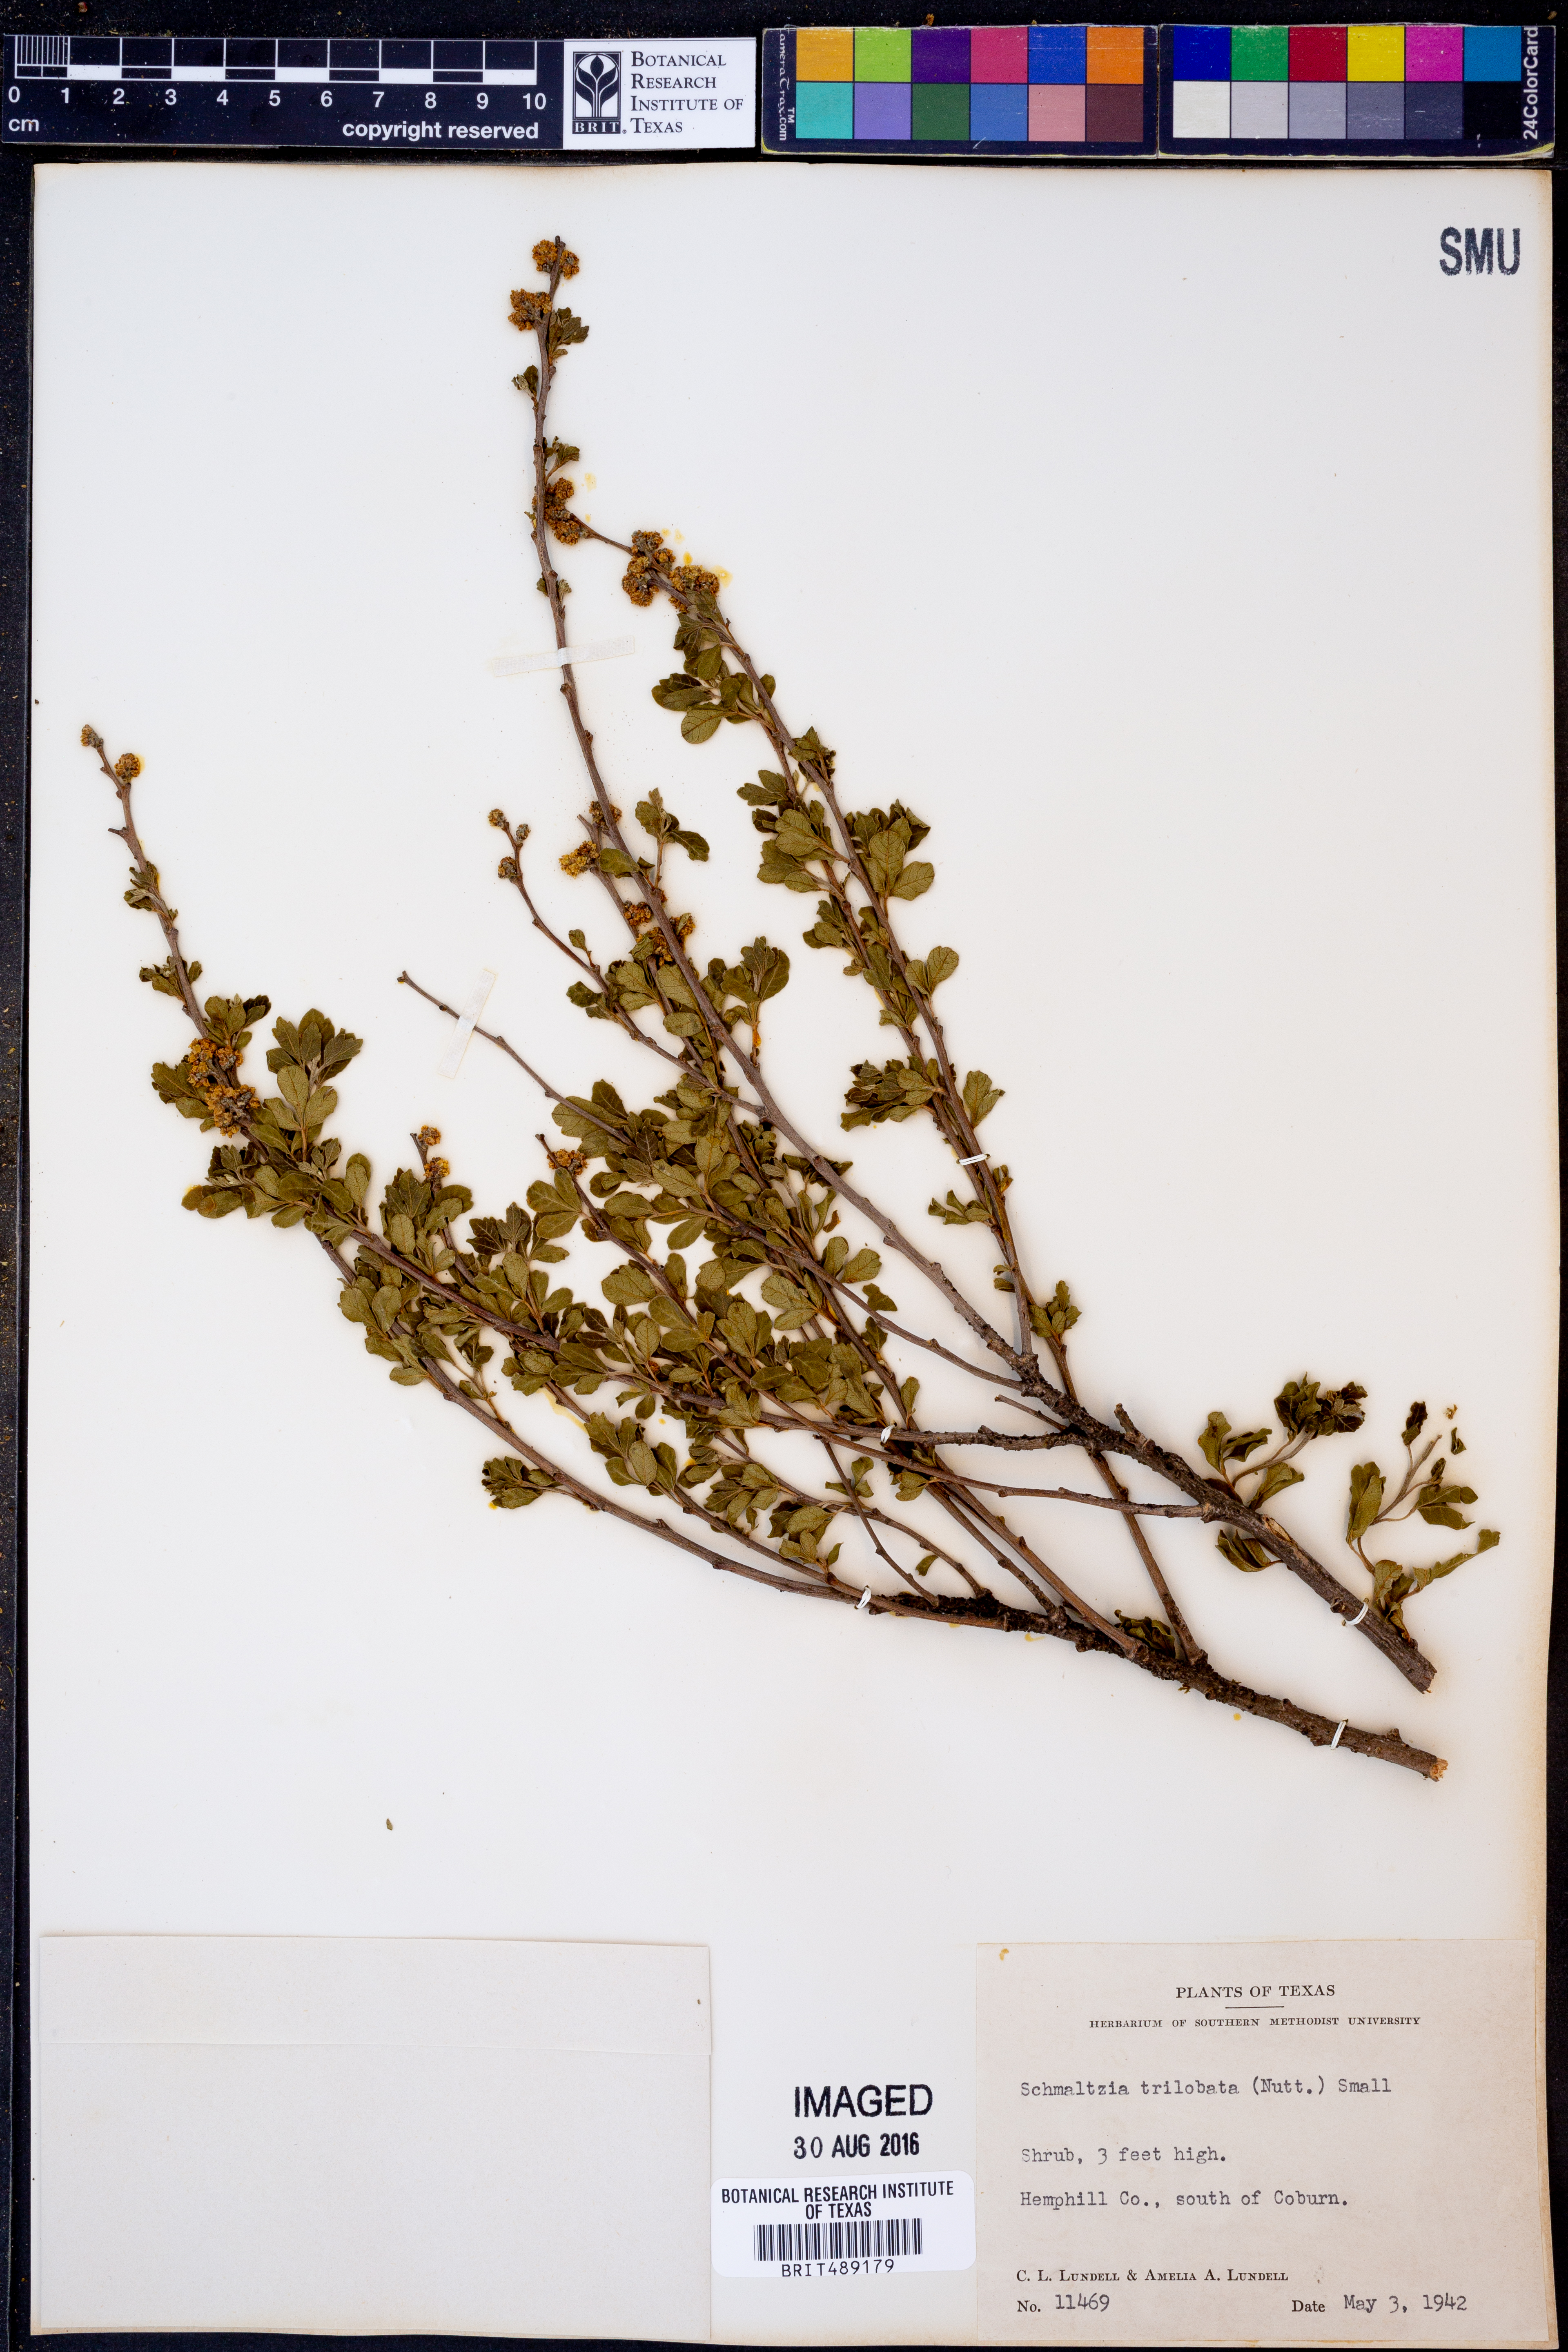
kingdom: Plantae
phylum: Tracheophyta
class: Magnoliopsida
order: Sapindales
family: Anacardiaceae
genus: Rhus
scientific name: Rhus trilobata
